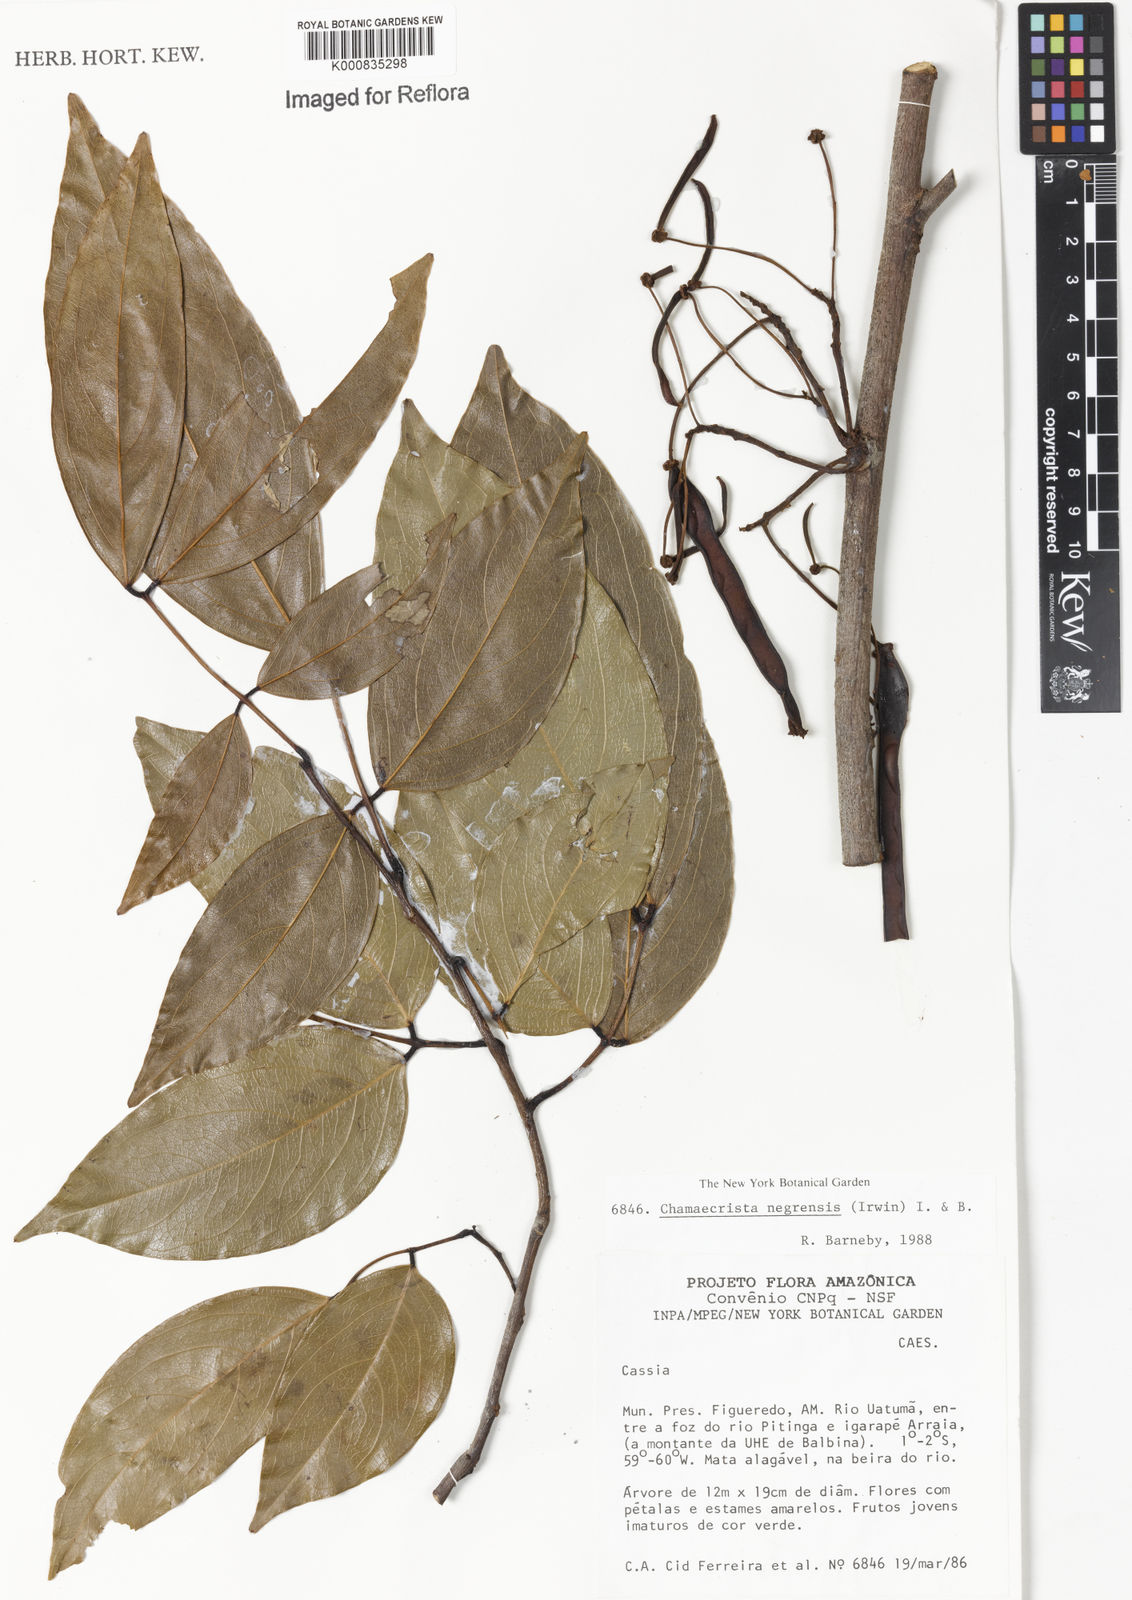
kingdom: Plantae
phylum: Tracheophyta
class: Magnoliopsida
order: Fabales
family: Fabaceae
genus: Chamaecrista
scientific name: Chamaecrista negrensis
